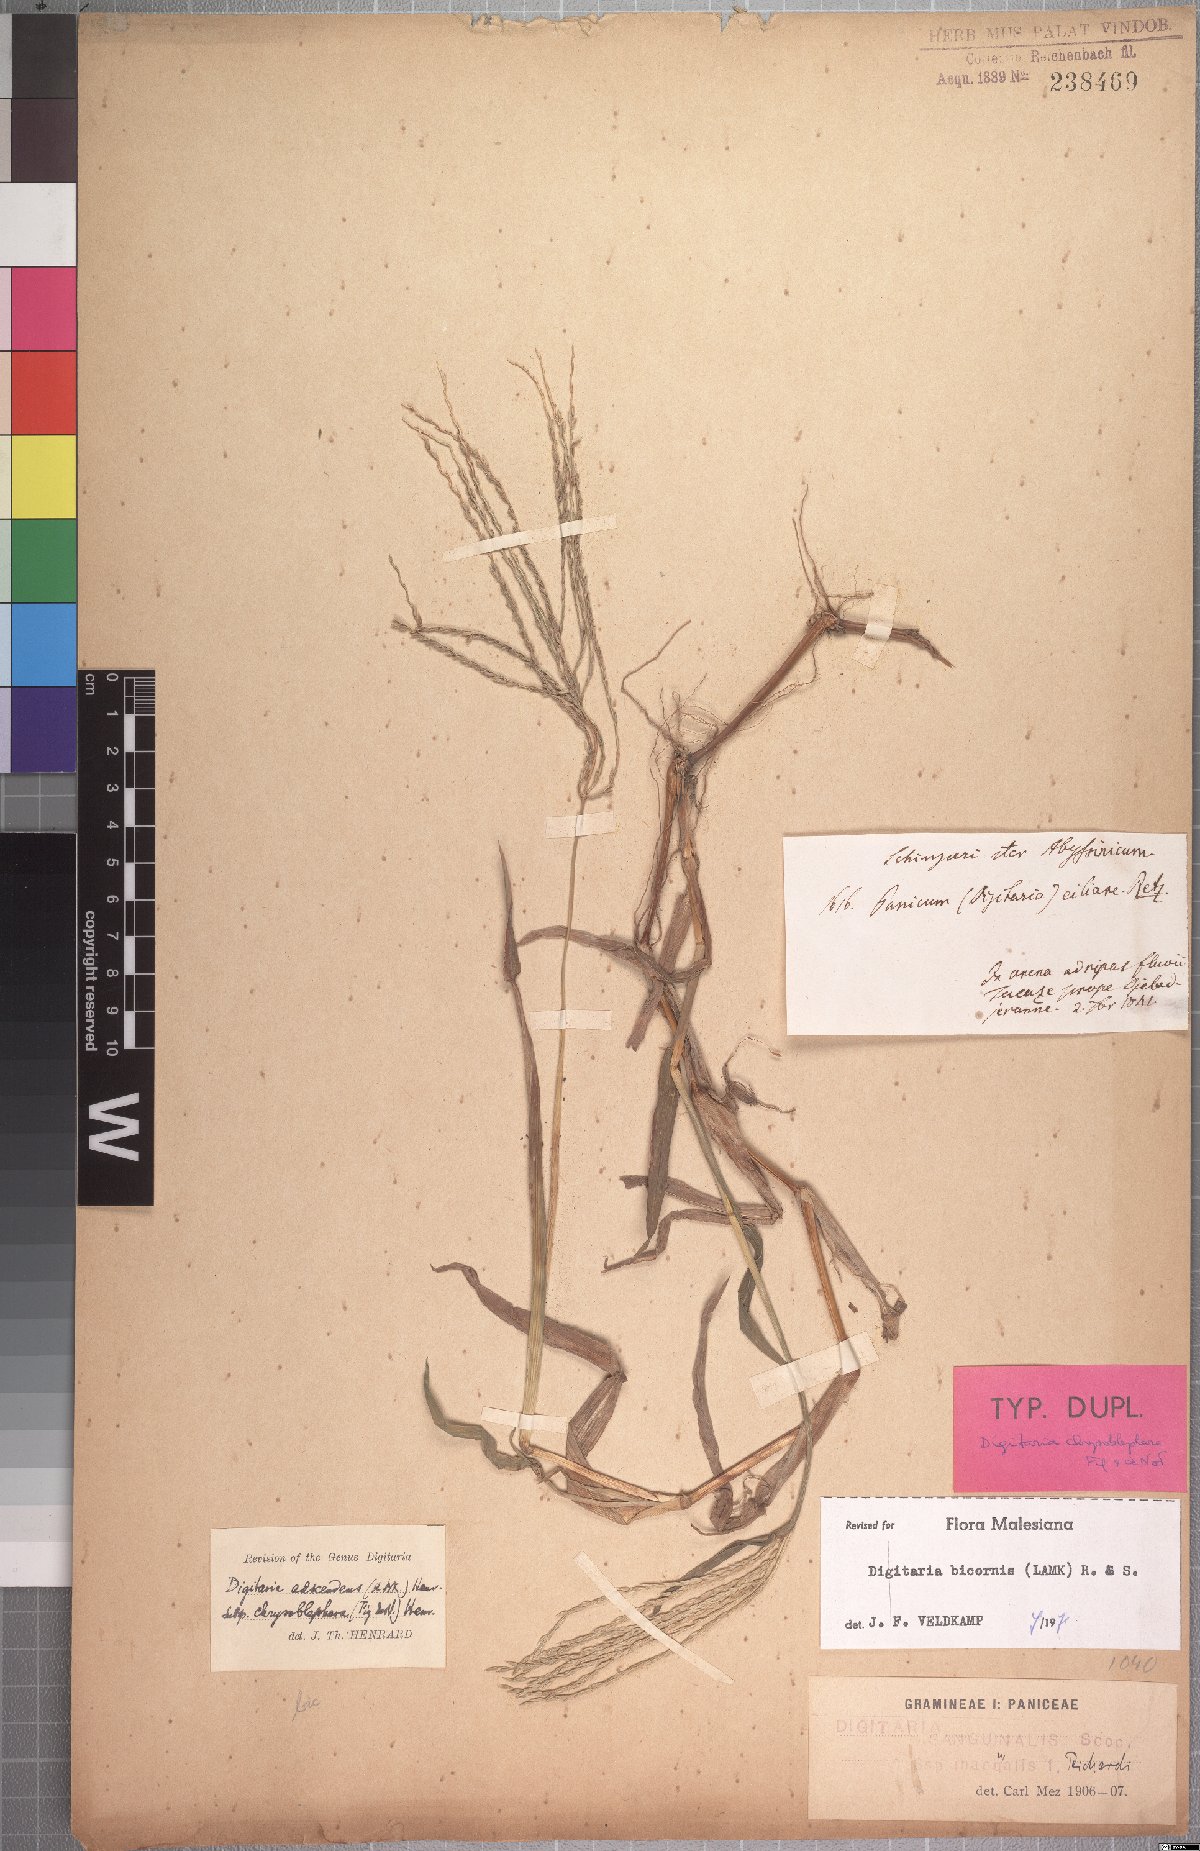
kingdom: Plantae
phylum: Tracheophyta
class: Liliopsida
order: Poales
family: Poaceae
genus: Digitaria
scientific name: Digitaria bicornis
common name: Asian crabgrass
